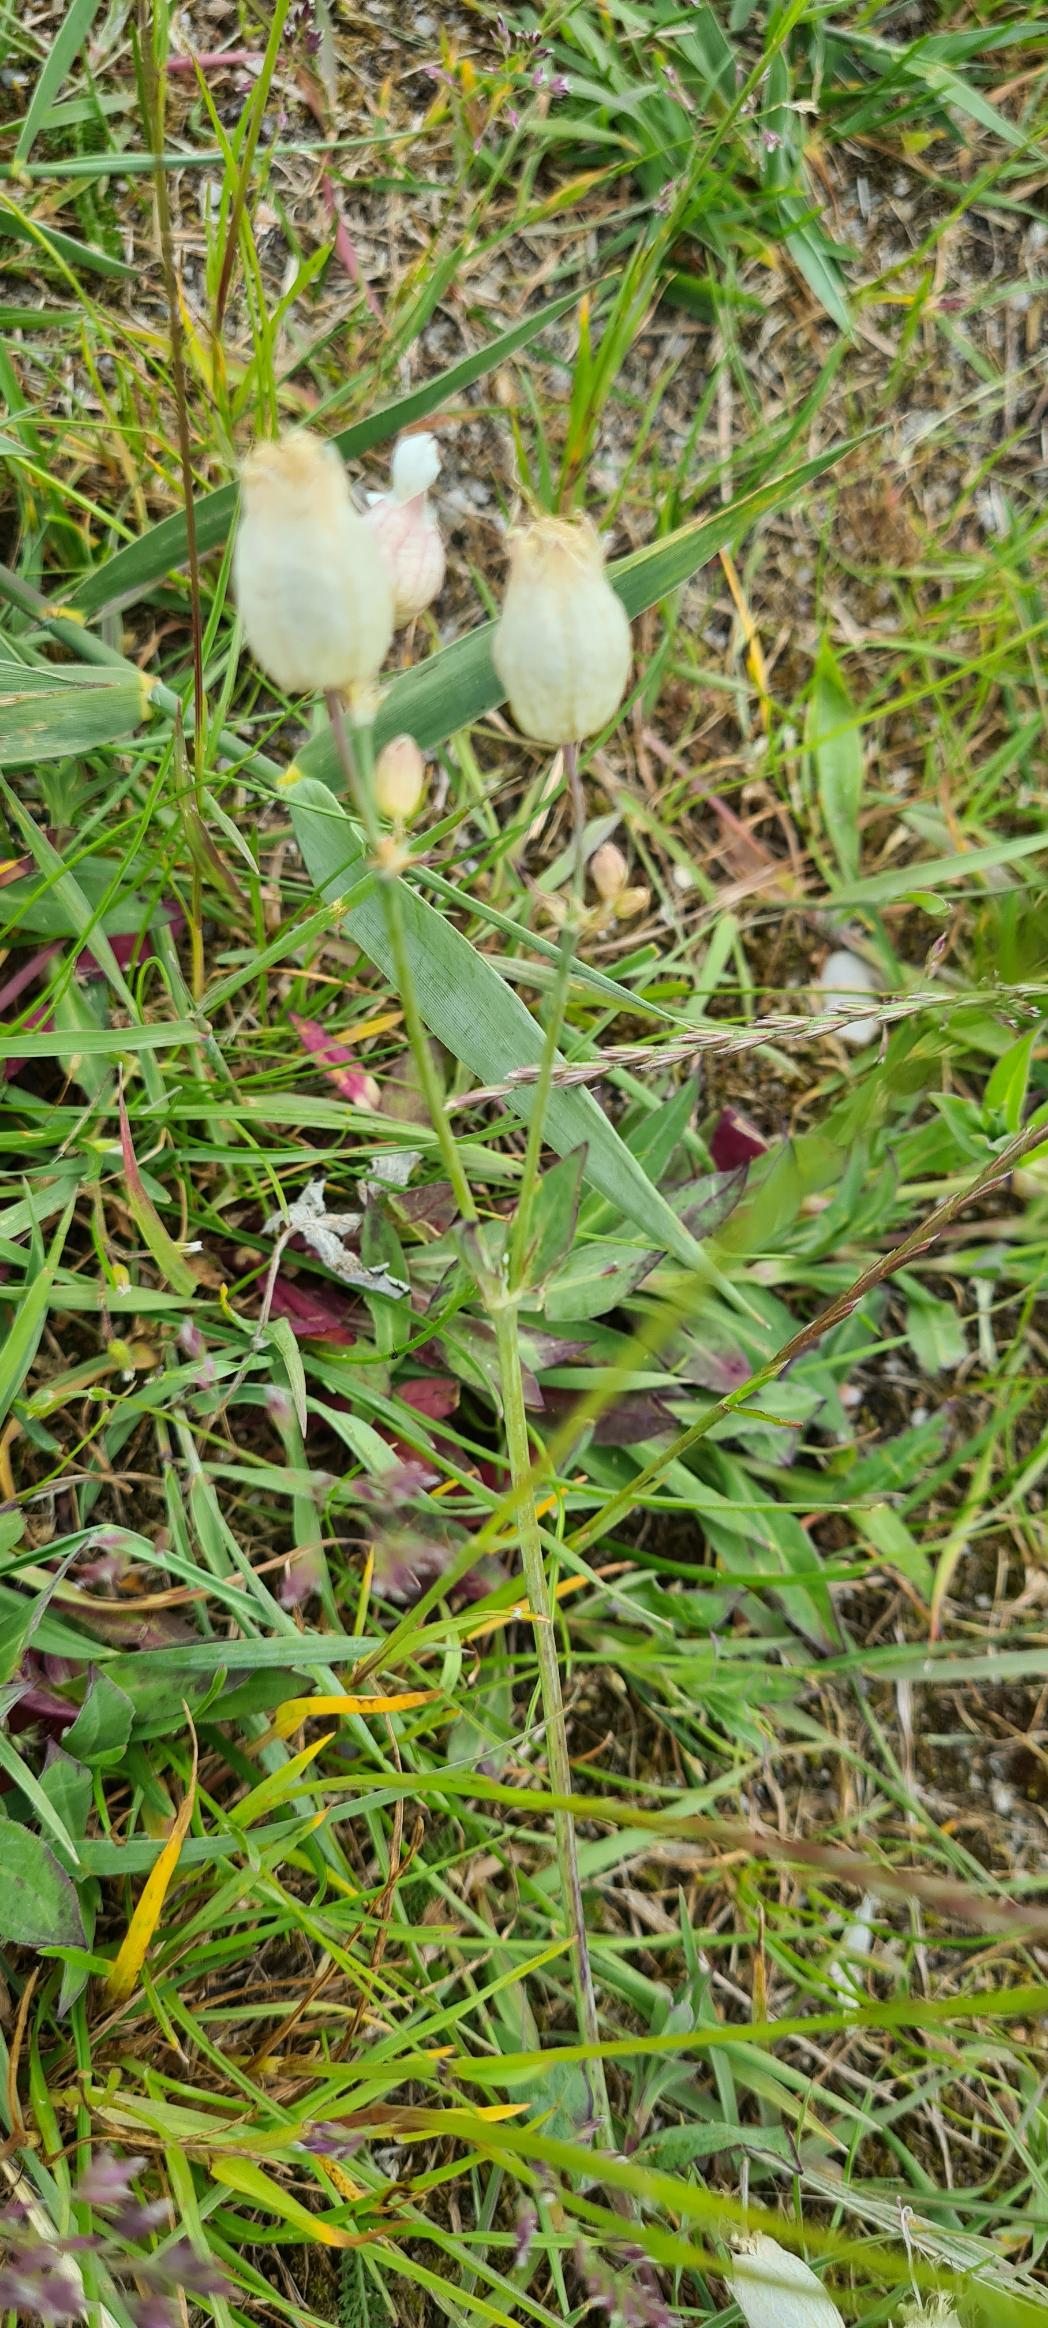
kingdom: Plantae
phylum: Tracheophyta
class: Magnoliopsida
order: Caryophyllales
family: Caryophyllaceae
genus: Silene
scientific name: Silene vulgaris
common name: Blæresmælde
